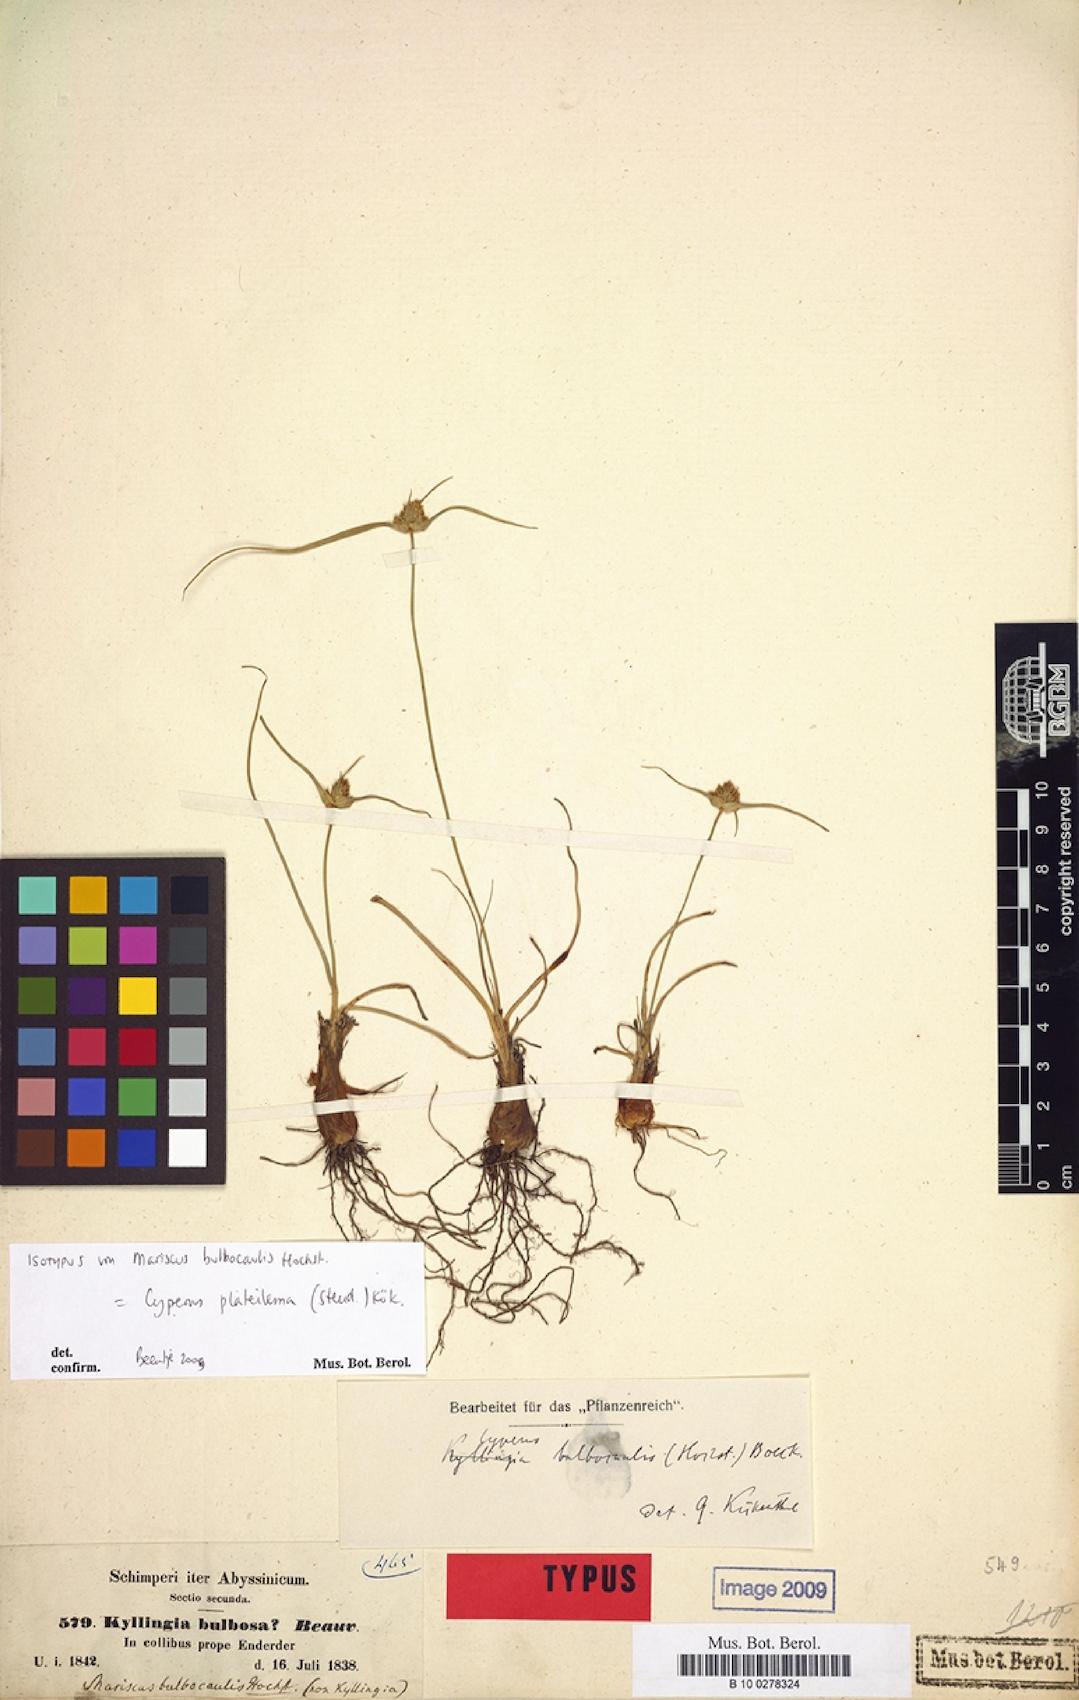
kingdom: Plantae
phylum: Tracheophyta
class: Liliopsida
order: Poales
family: Cyperaceae
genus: Cyperus
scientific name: Cyperus plateilema
